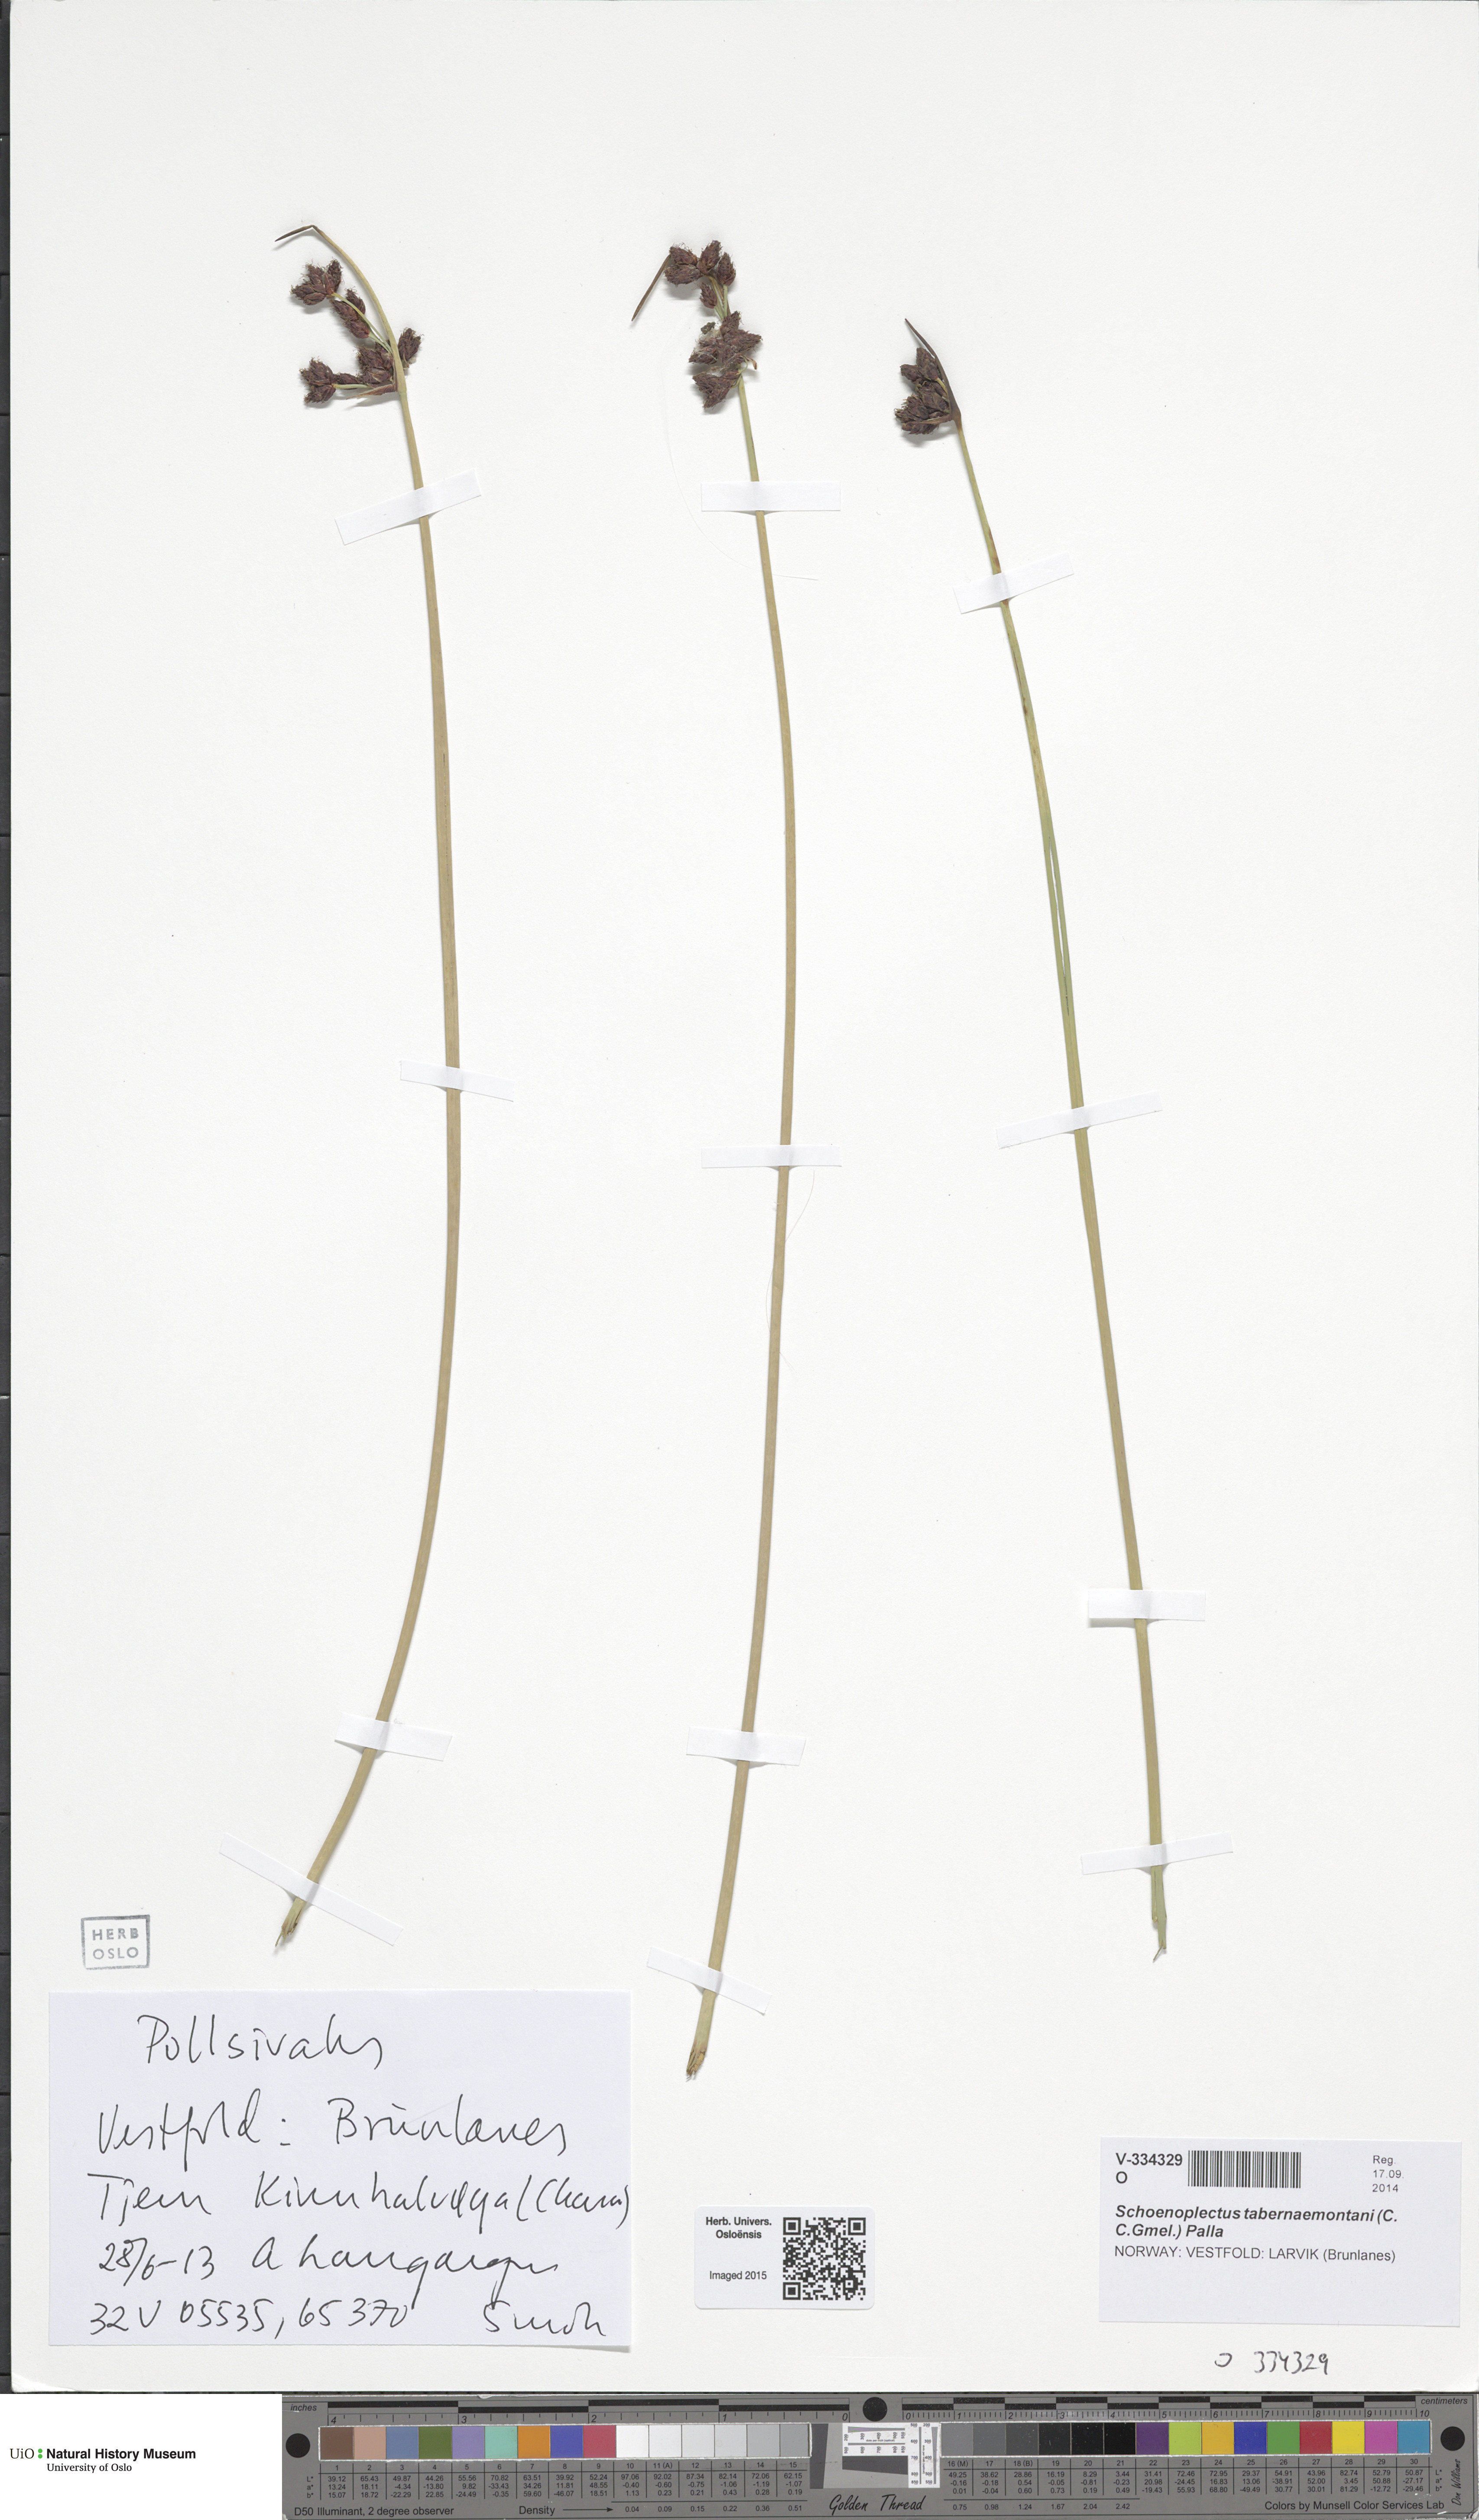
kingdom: Plantae
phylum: Tracheophyta
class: Liliopsida
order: Poales
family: Cyperaceae
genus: Schoenoplectus
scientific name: Schoenoplectus tabernaemontani
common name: Grey club-rush
